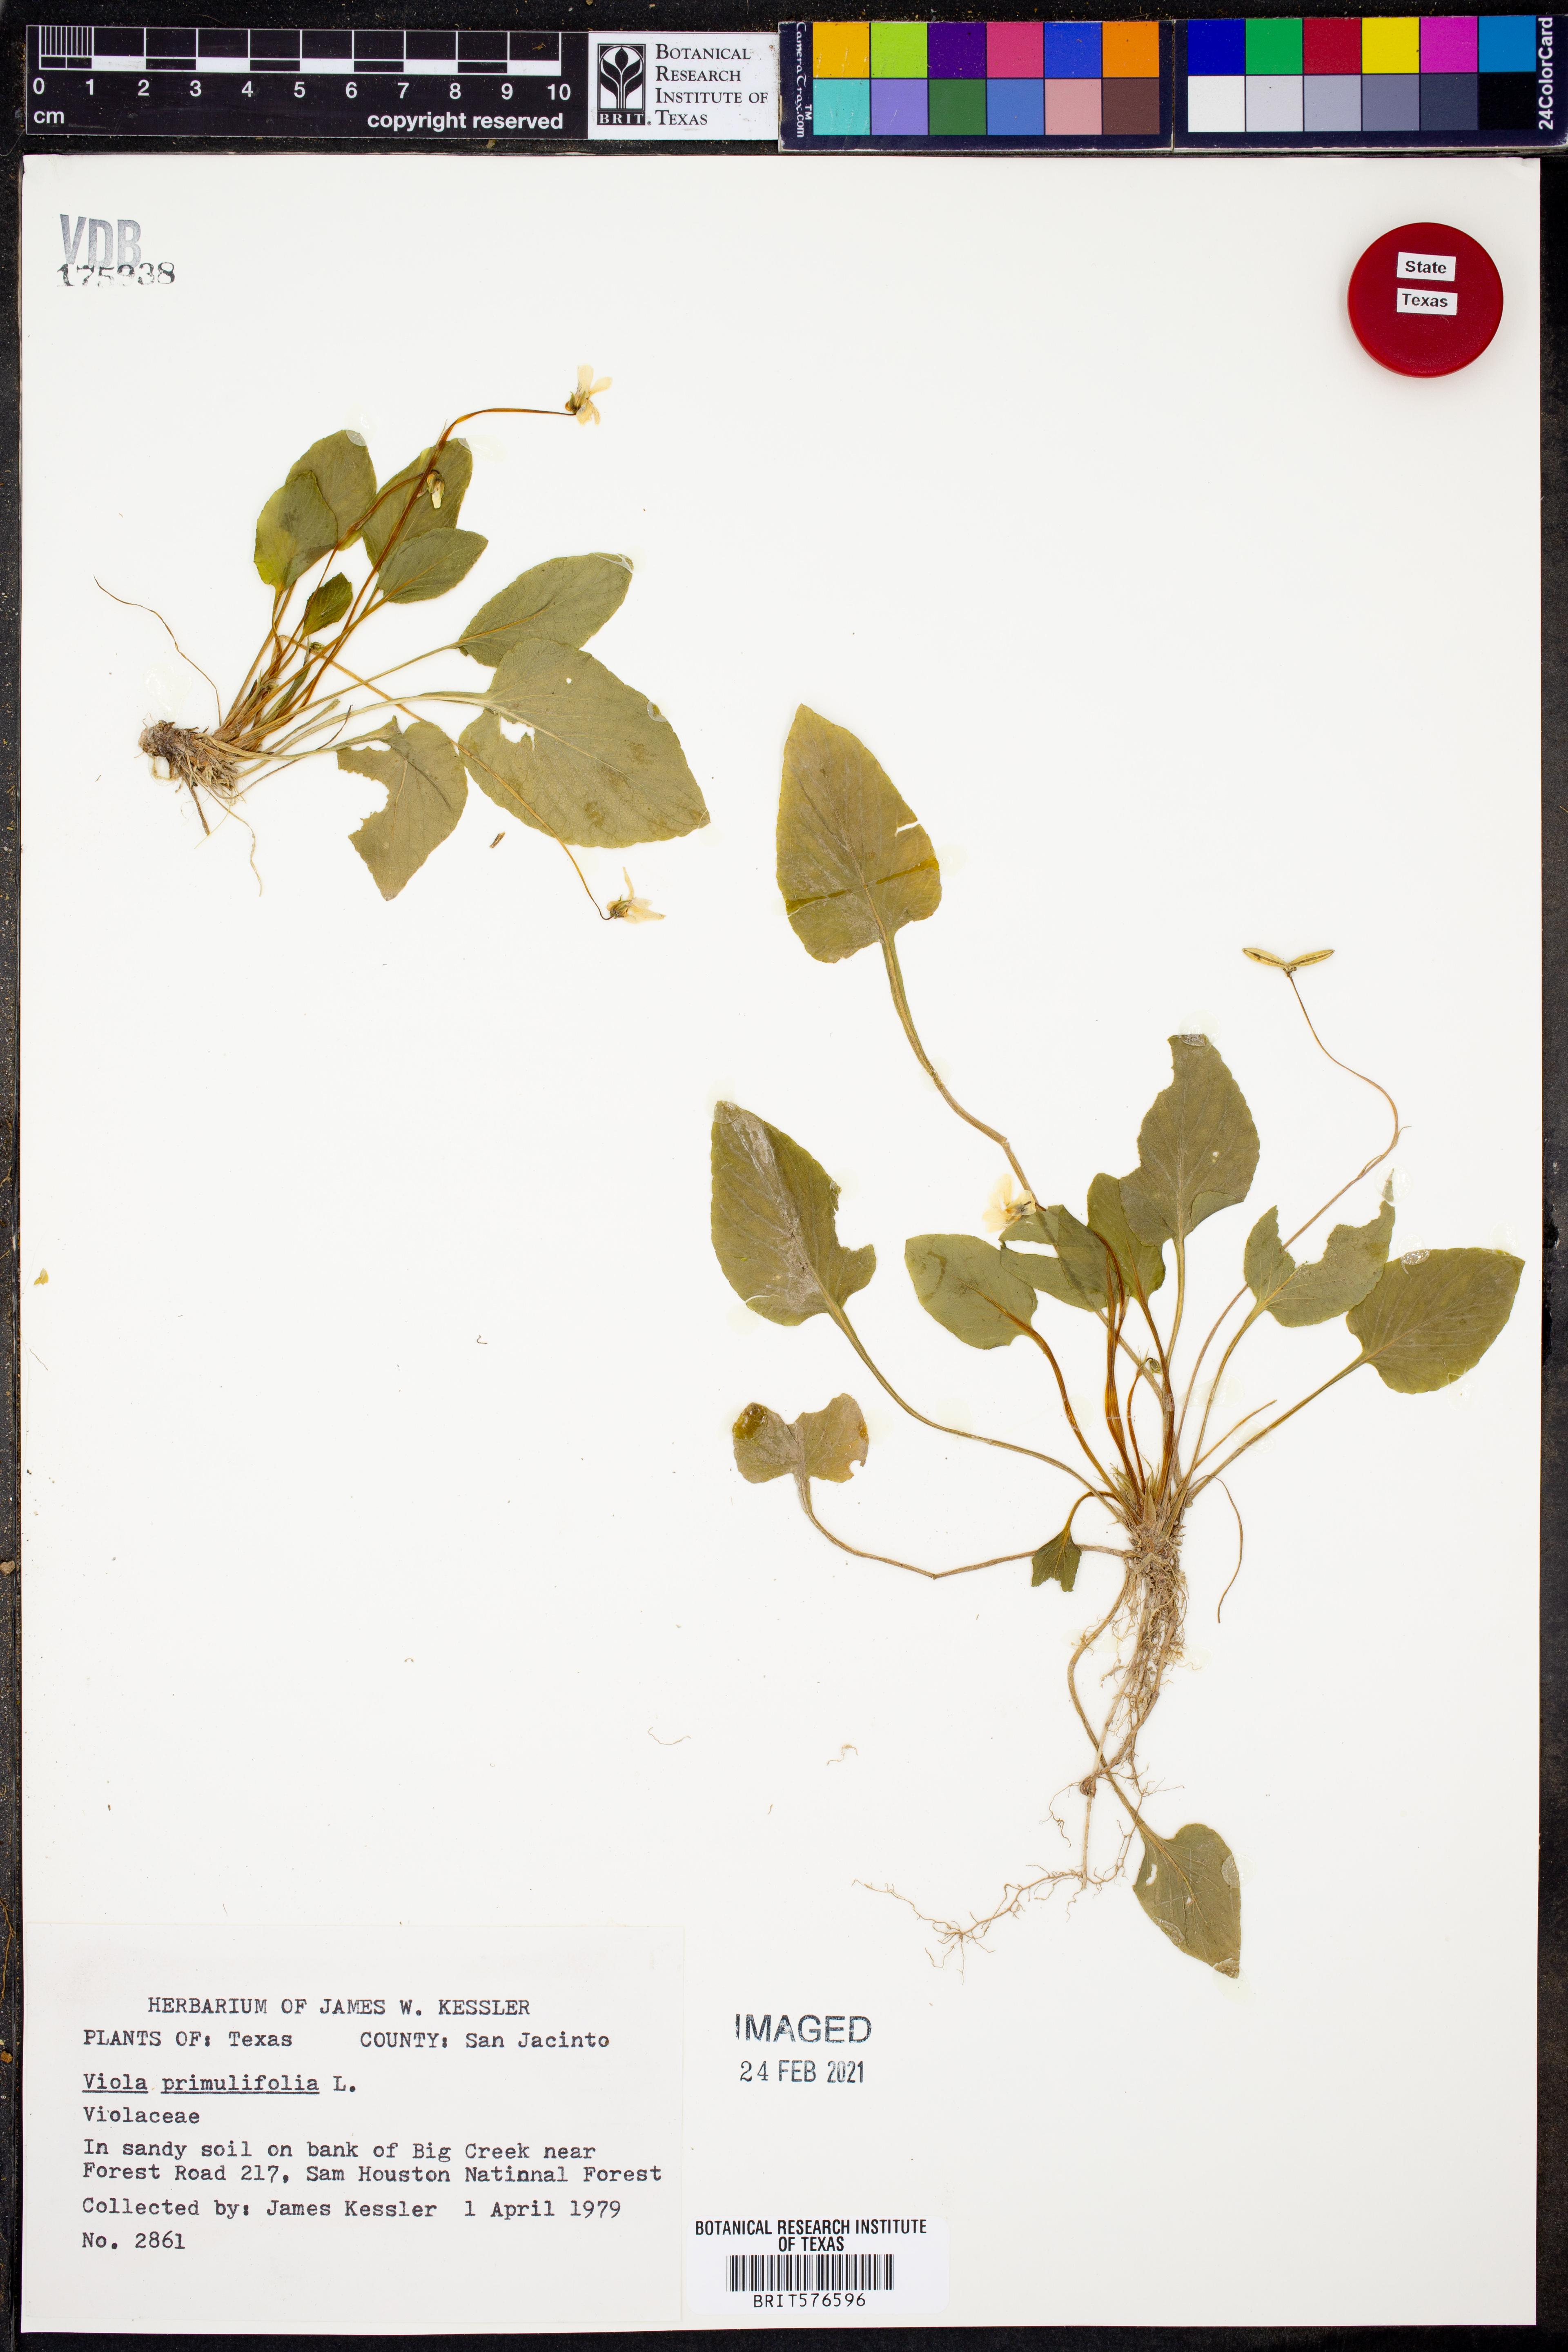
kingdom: Plantae
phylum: Tracheophyta
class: Magnoliopsida
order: Malpighiales
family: Violaceae
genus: Viola
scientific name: Viola primulifolia
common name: Primrose-leaf violet
